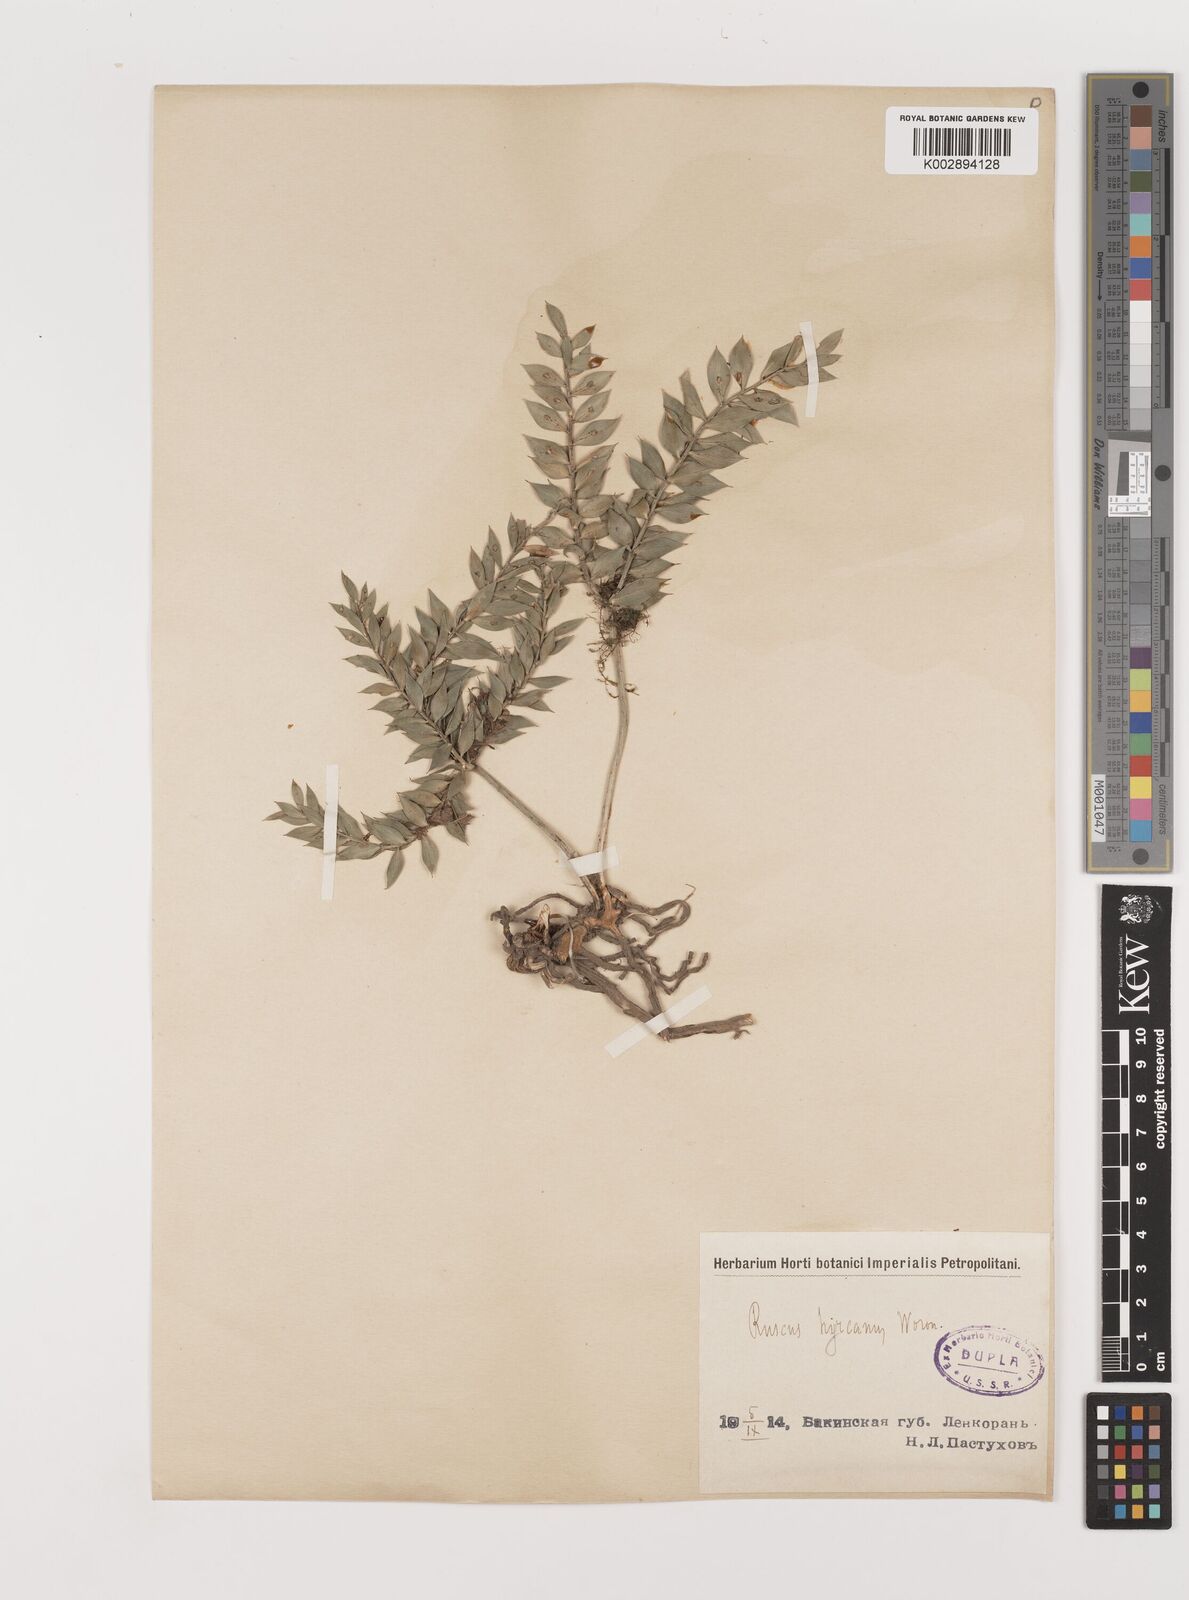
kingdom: Plantae
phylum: Tracheophyta
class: Liliopsida
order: Asparagales
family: Asparagaceae
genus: Ruscus
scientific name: Ruscus hyrcanus
